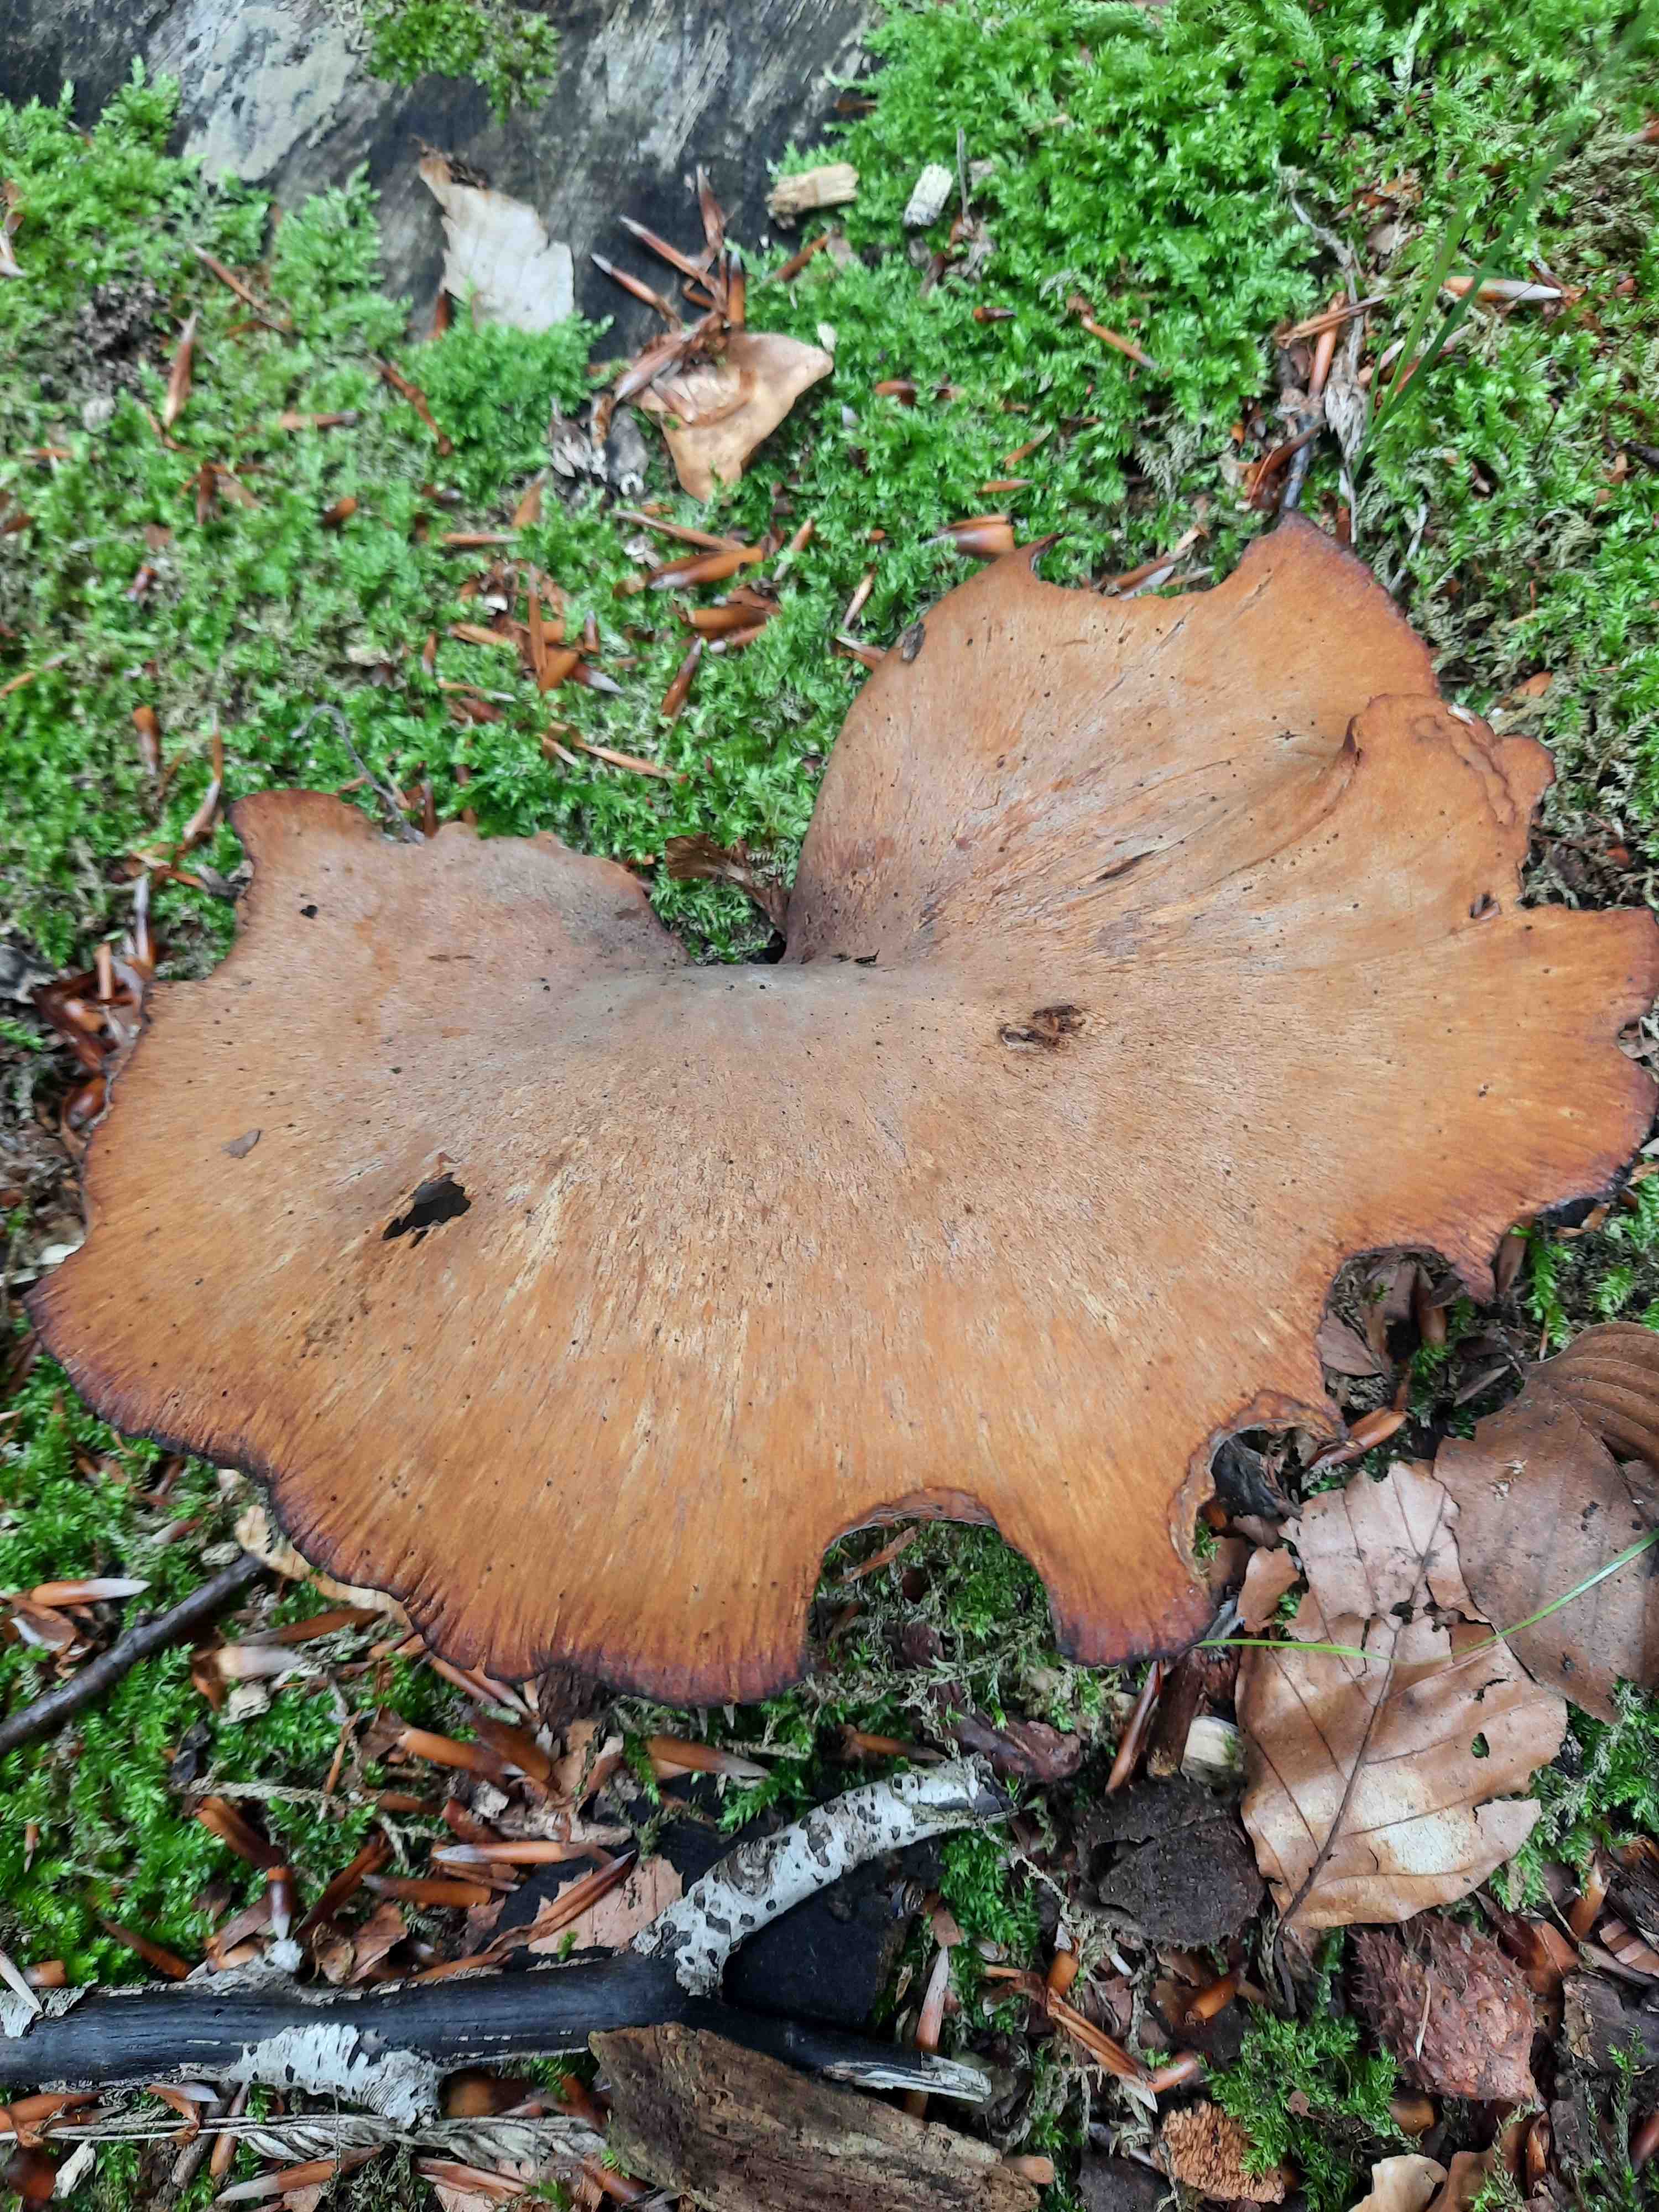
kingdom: Fungi
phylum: Basidiomycota
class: Agaricomycetes
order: Polyporales
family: Polyporaceae
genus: Cerioporus
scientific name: Cerioporus varius
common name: foranderlig stilkporesvamp
